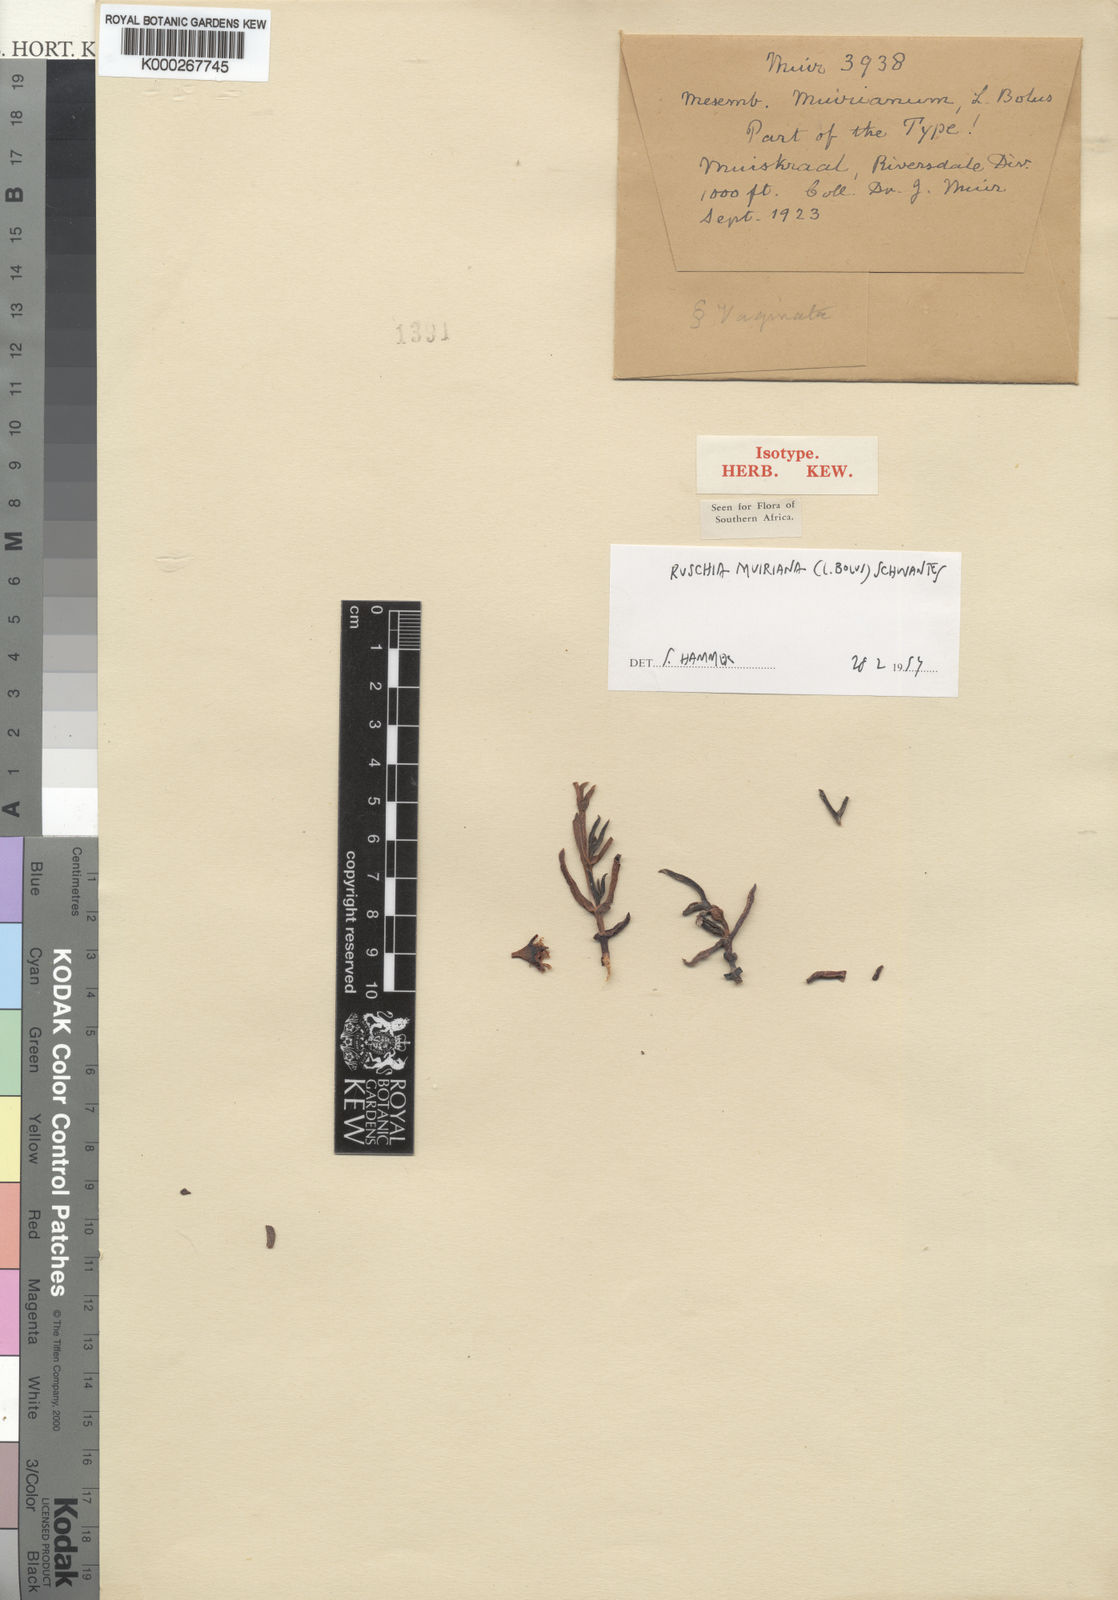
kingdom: Plantae
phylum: Tracheophyta
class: Magnoliopsida
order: Caryophyllales
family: Aizoaceae
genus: Ruschia
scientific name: Ruschia muiriana
